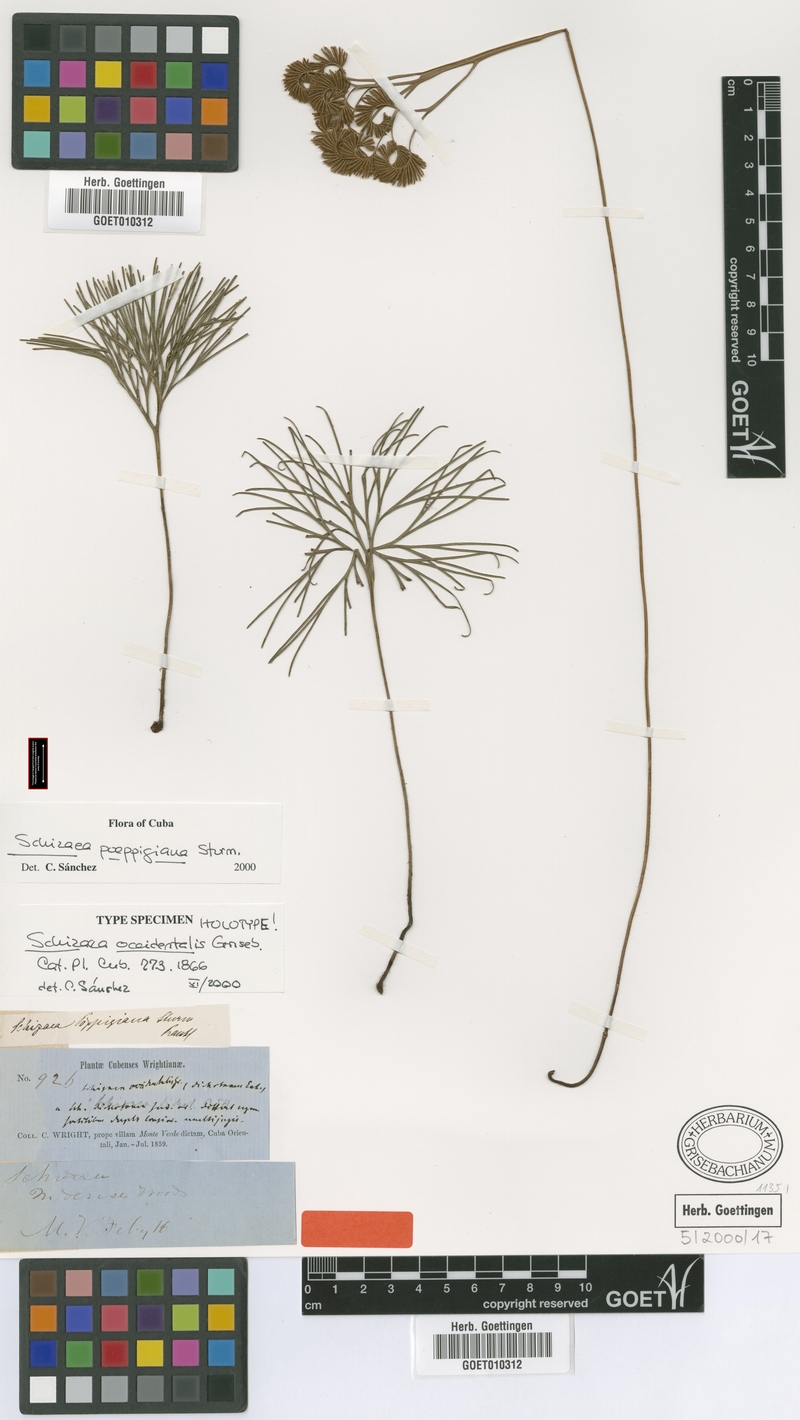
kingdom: Plantae
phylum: Tracheophyta
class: Polypodiopsida
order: Schizaeales
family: Schizaeaceae
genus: Schizaea
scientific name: Schizaea poeppigiana
